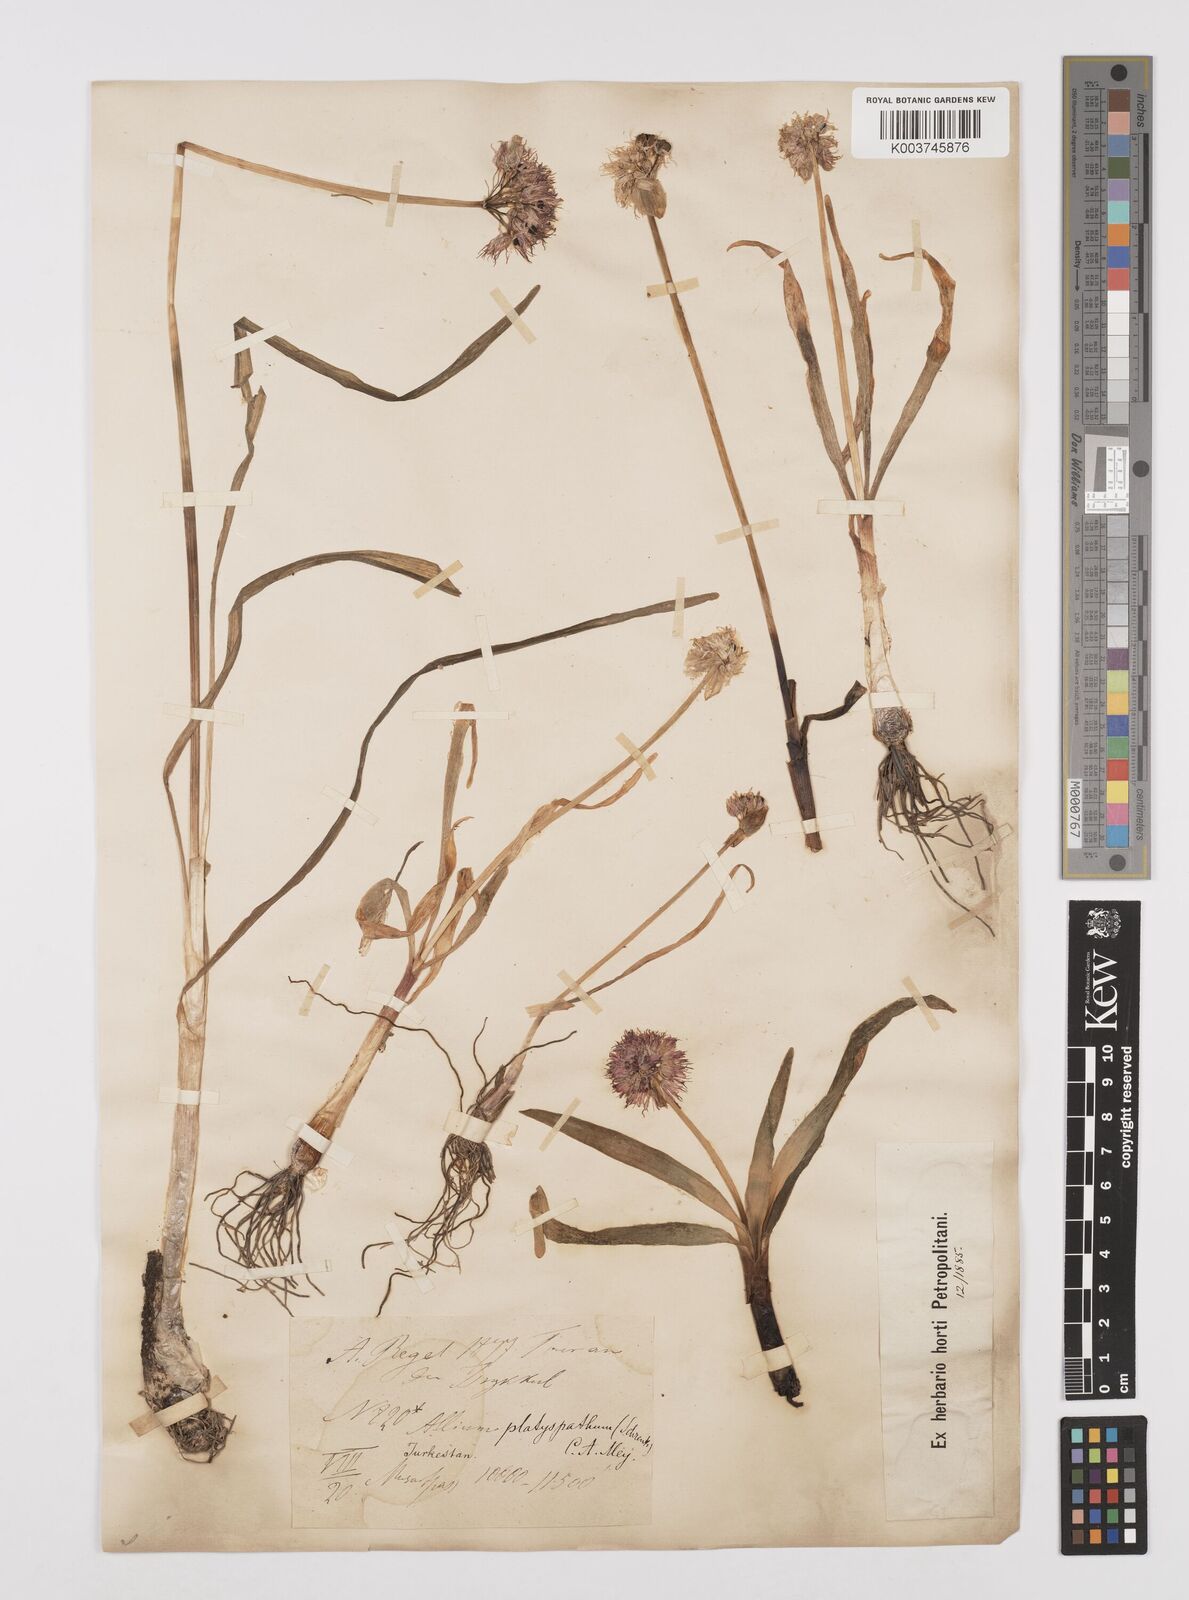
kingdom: Plantae
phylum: Tracheophyta
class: Liliopsida
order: Asparagales
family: Amaryllidaceae
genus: Allium
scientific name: Allium platyspathum
